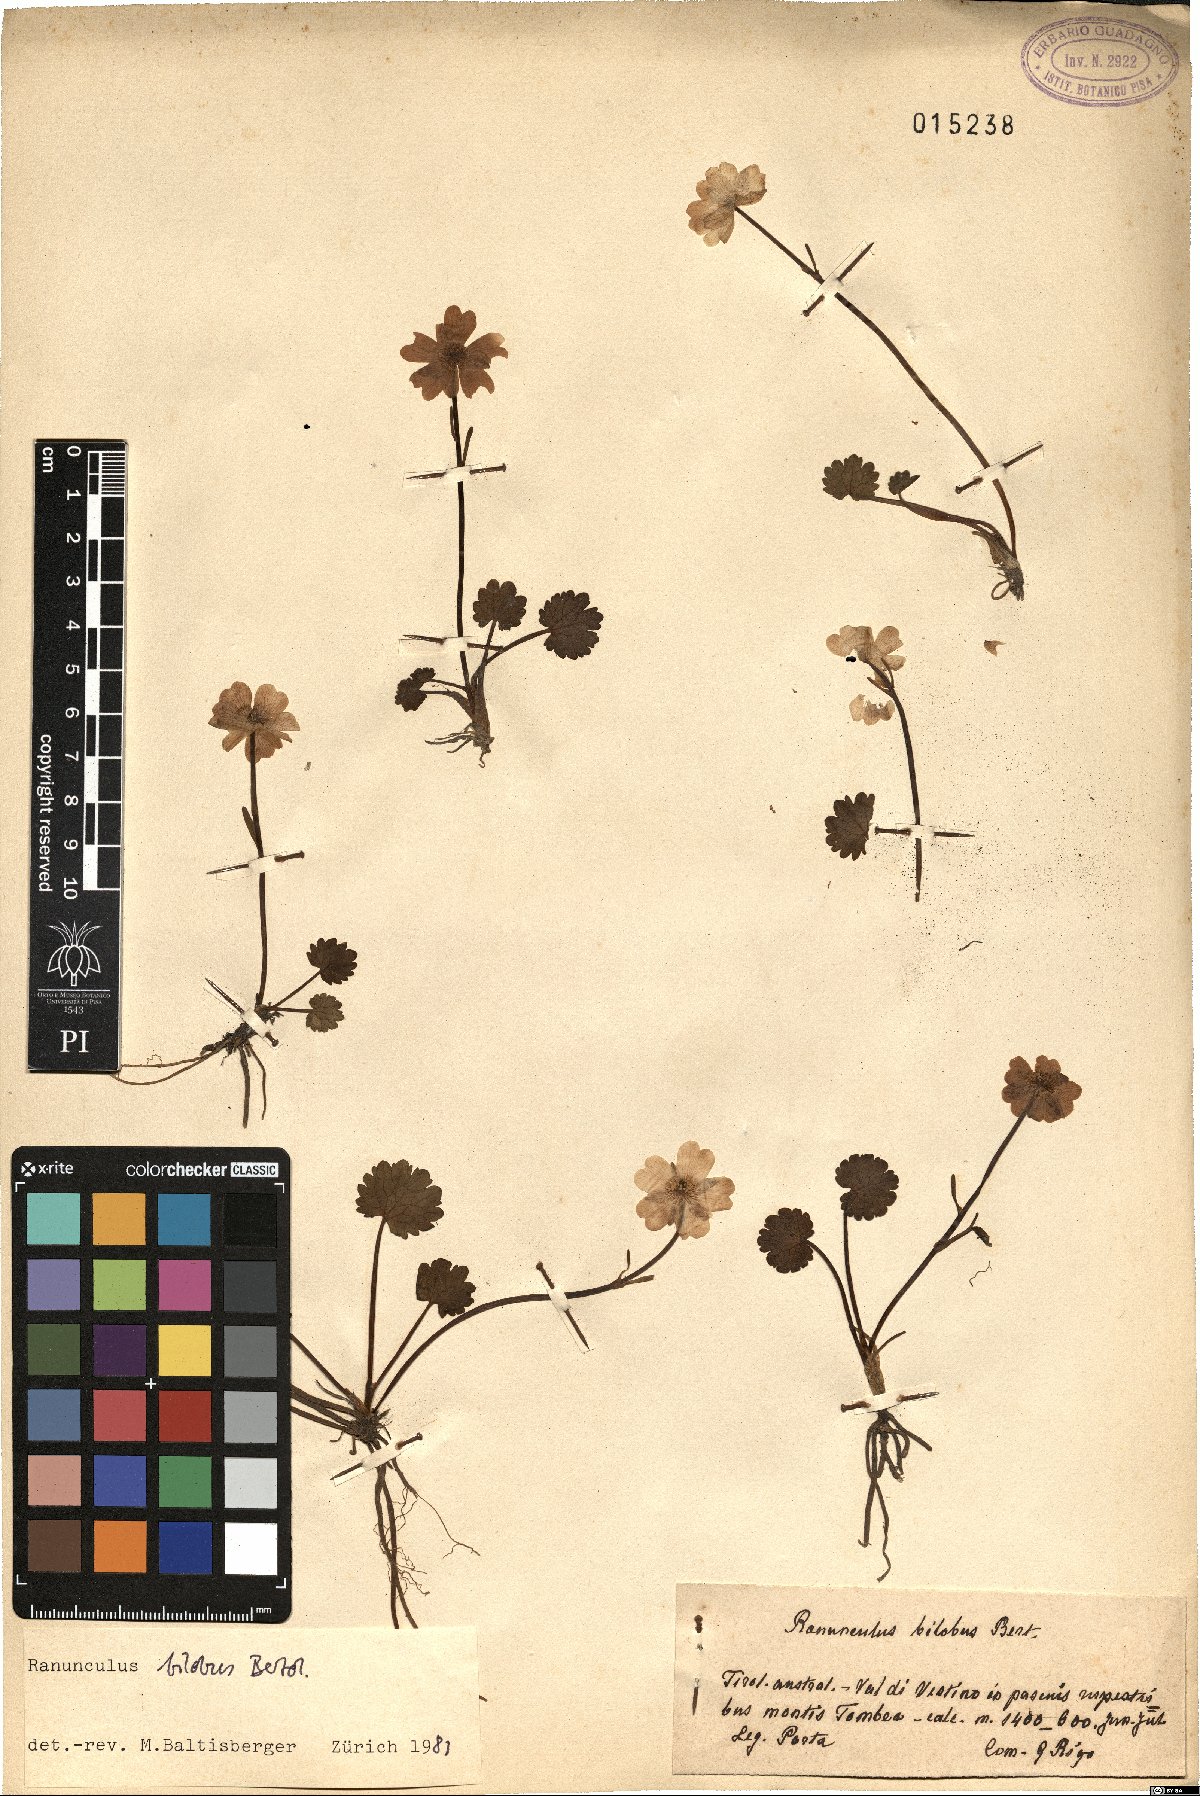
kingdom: Plantae
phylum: Tracheophyta
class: Magnoliopsida
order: Ranunculales
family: Ranunculaceae
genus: Ranunculus
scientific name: Ranunculus bilobus
